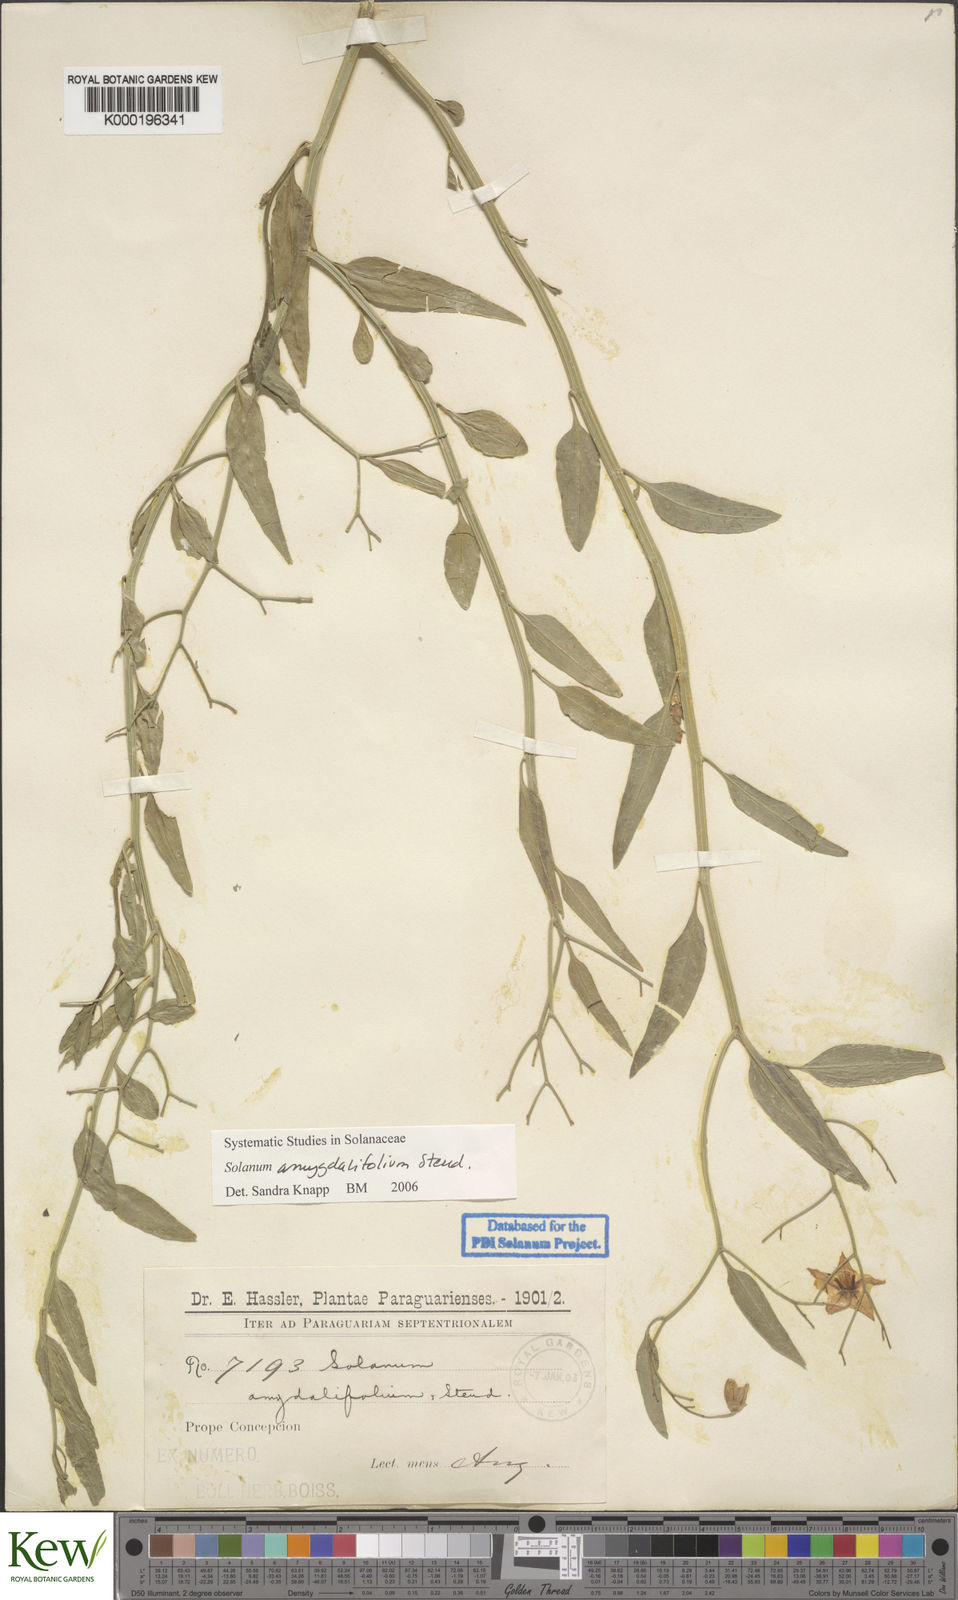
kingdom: Plantae
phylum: Tracheophyta
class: Magnoliopsida
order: Solanales
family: Solanaceae
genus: Solanum
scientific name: Solanum amygdalifolium
